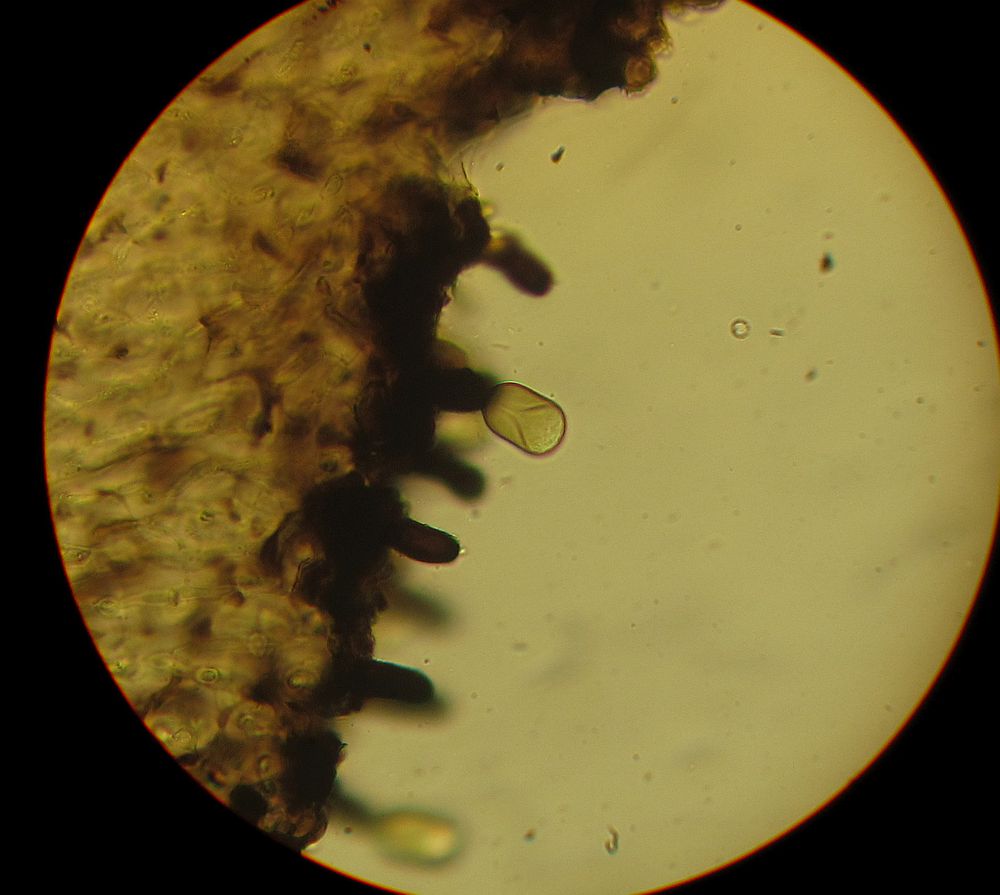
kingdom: Fungi
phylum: Ascomycota
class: Dothideomycetes
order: Pleosporales
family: Massarinaceae
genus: Helminthosporium
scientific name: Helminthosporium oligosporum
